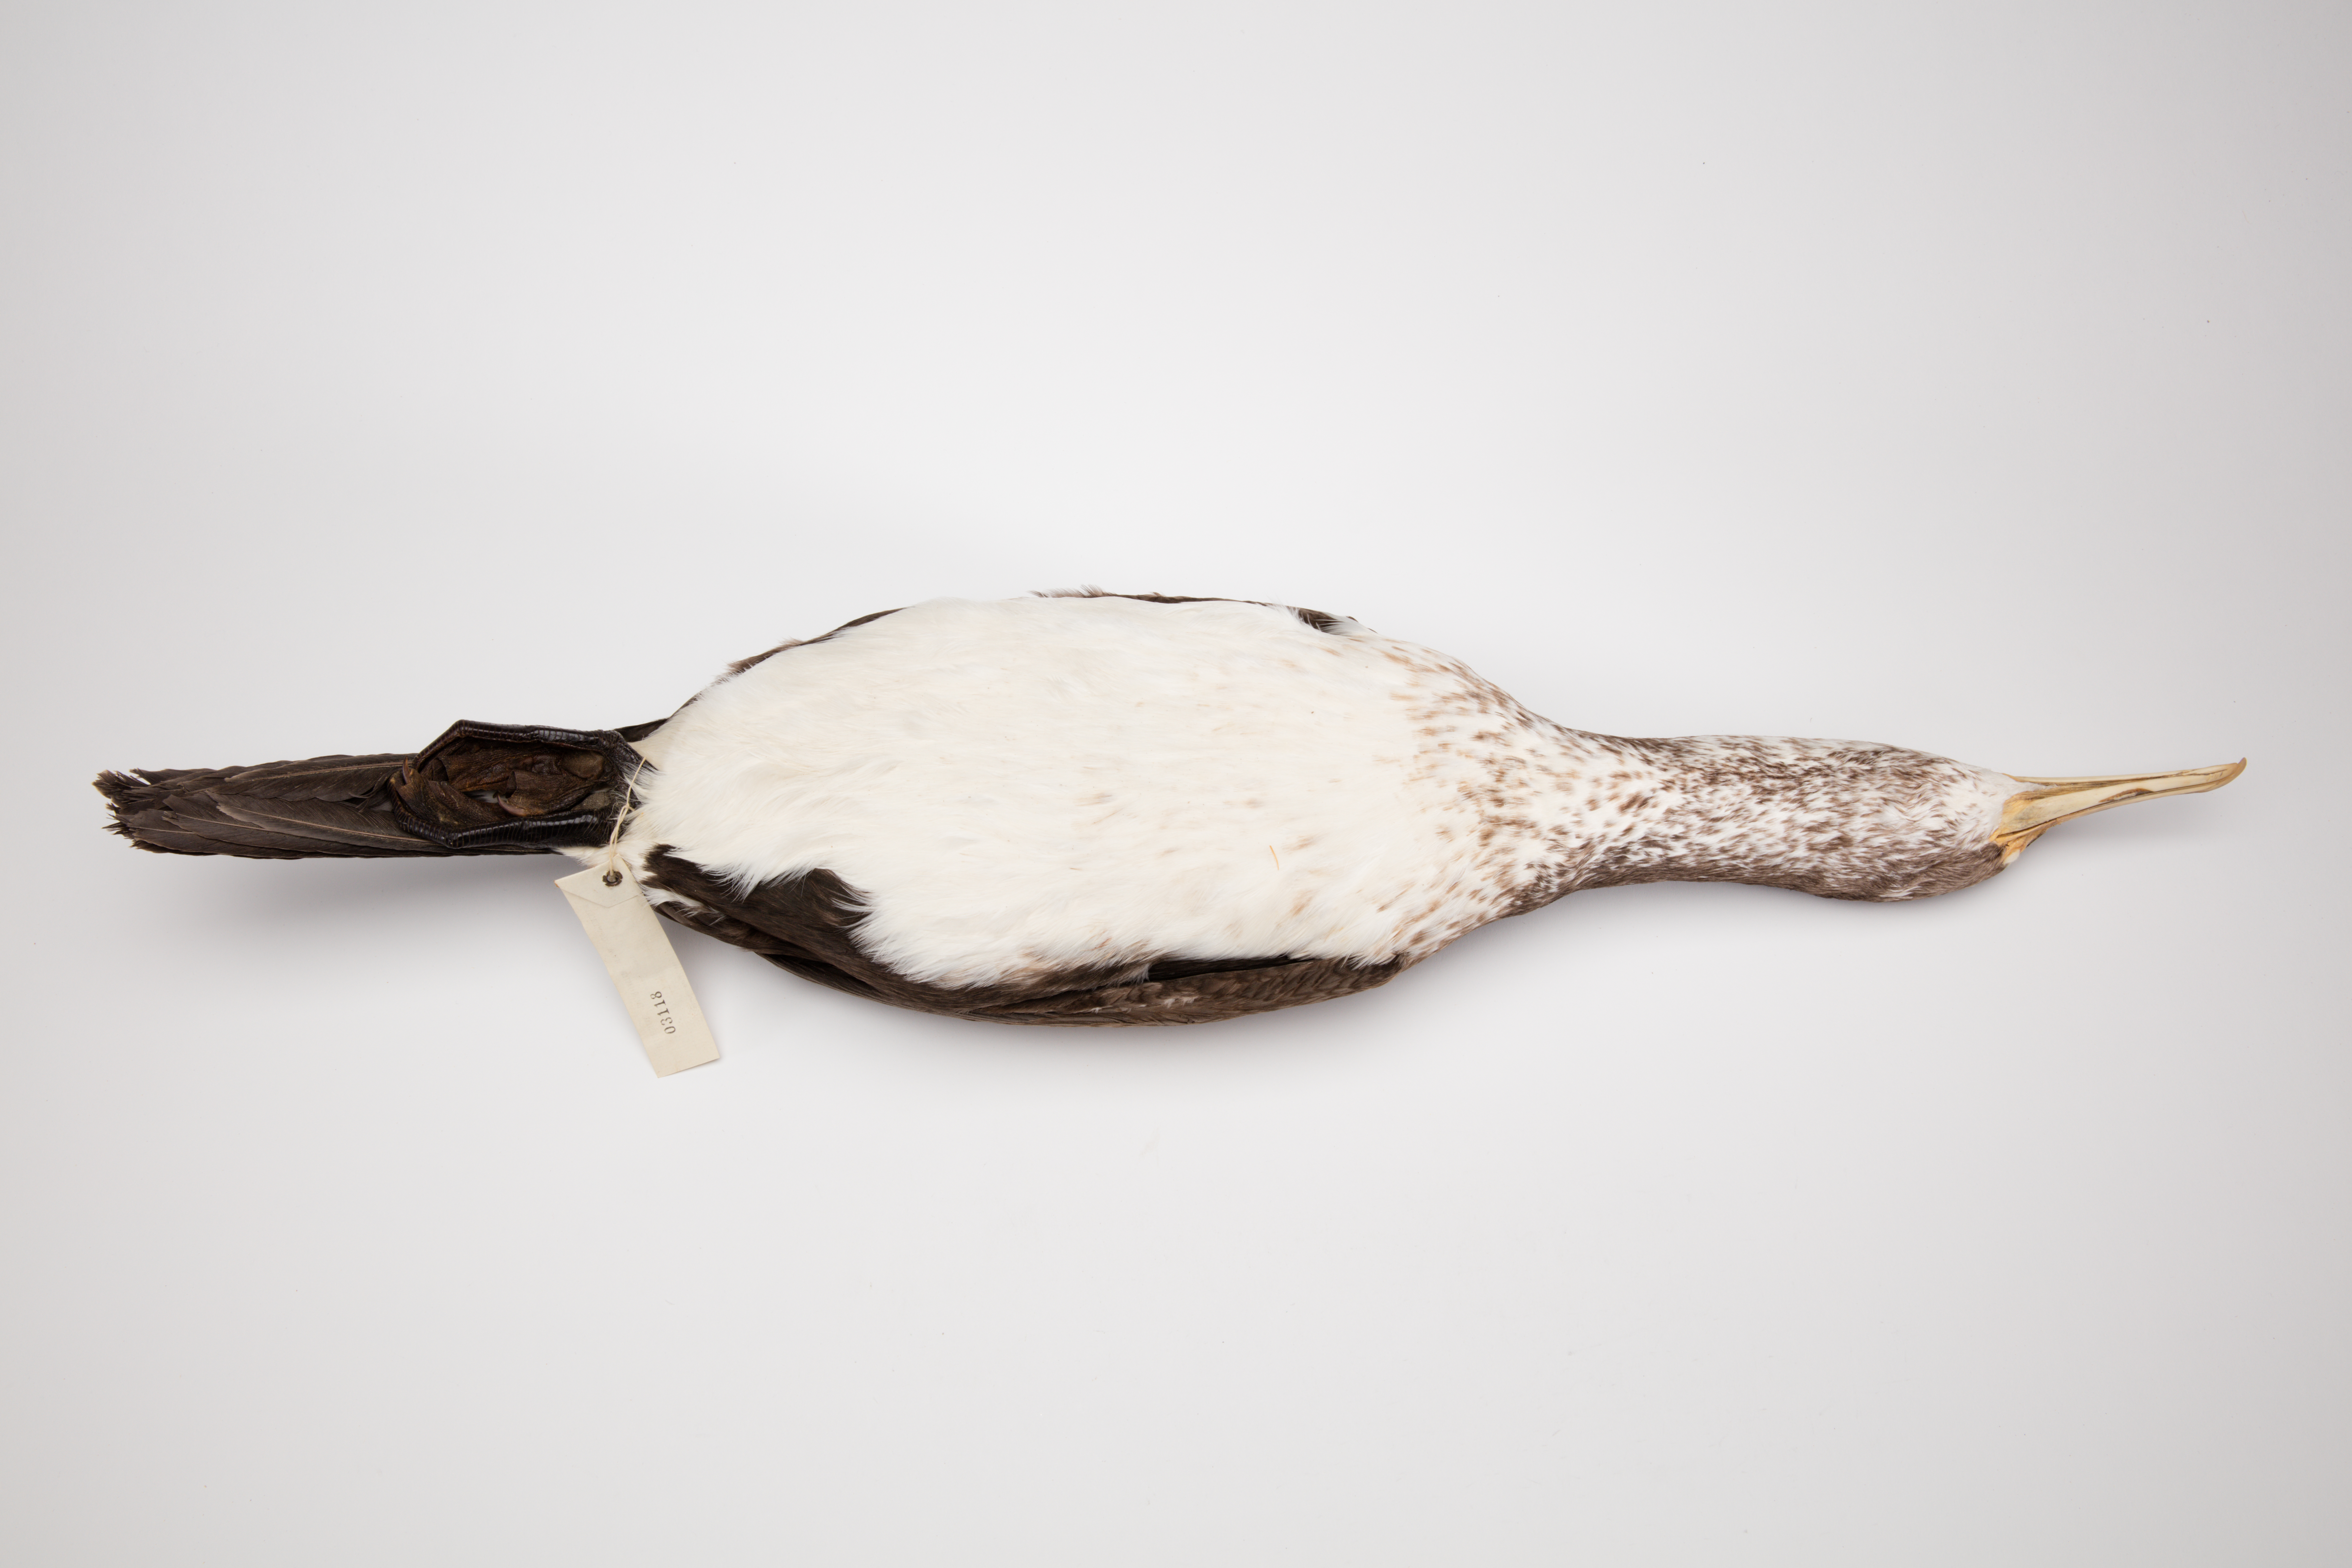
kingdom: Animalia
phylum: Chordata
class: Aves
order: Suliformes
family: Phalacrocoracidae
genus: Phalacrocorax
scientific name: Phalacrocorax varius
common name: Pied cormorant
